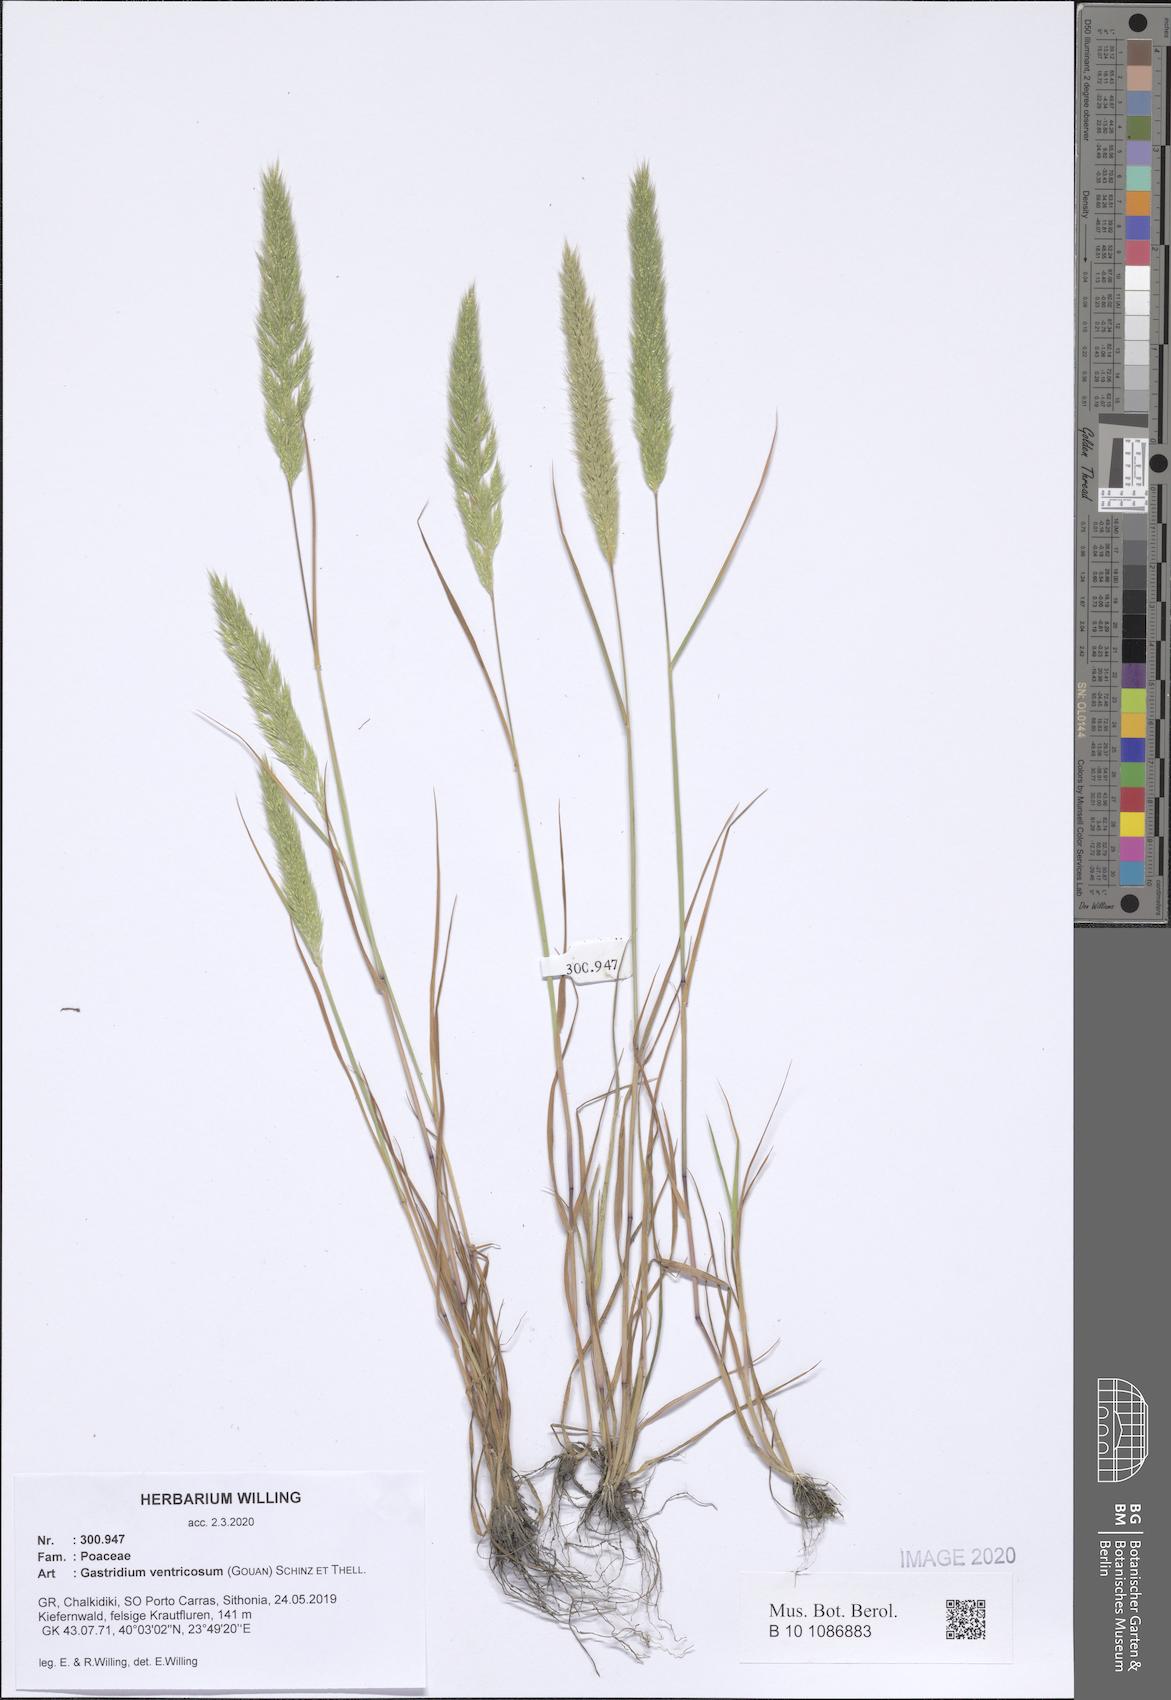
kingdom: Plantae
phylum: Tracheophyta
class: Liliopsida
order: Poales
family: Poaceae
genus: Gastridium
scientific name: Gastridium ventricosum
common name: Nit-grass
